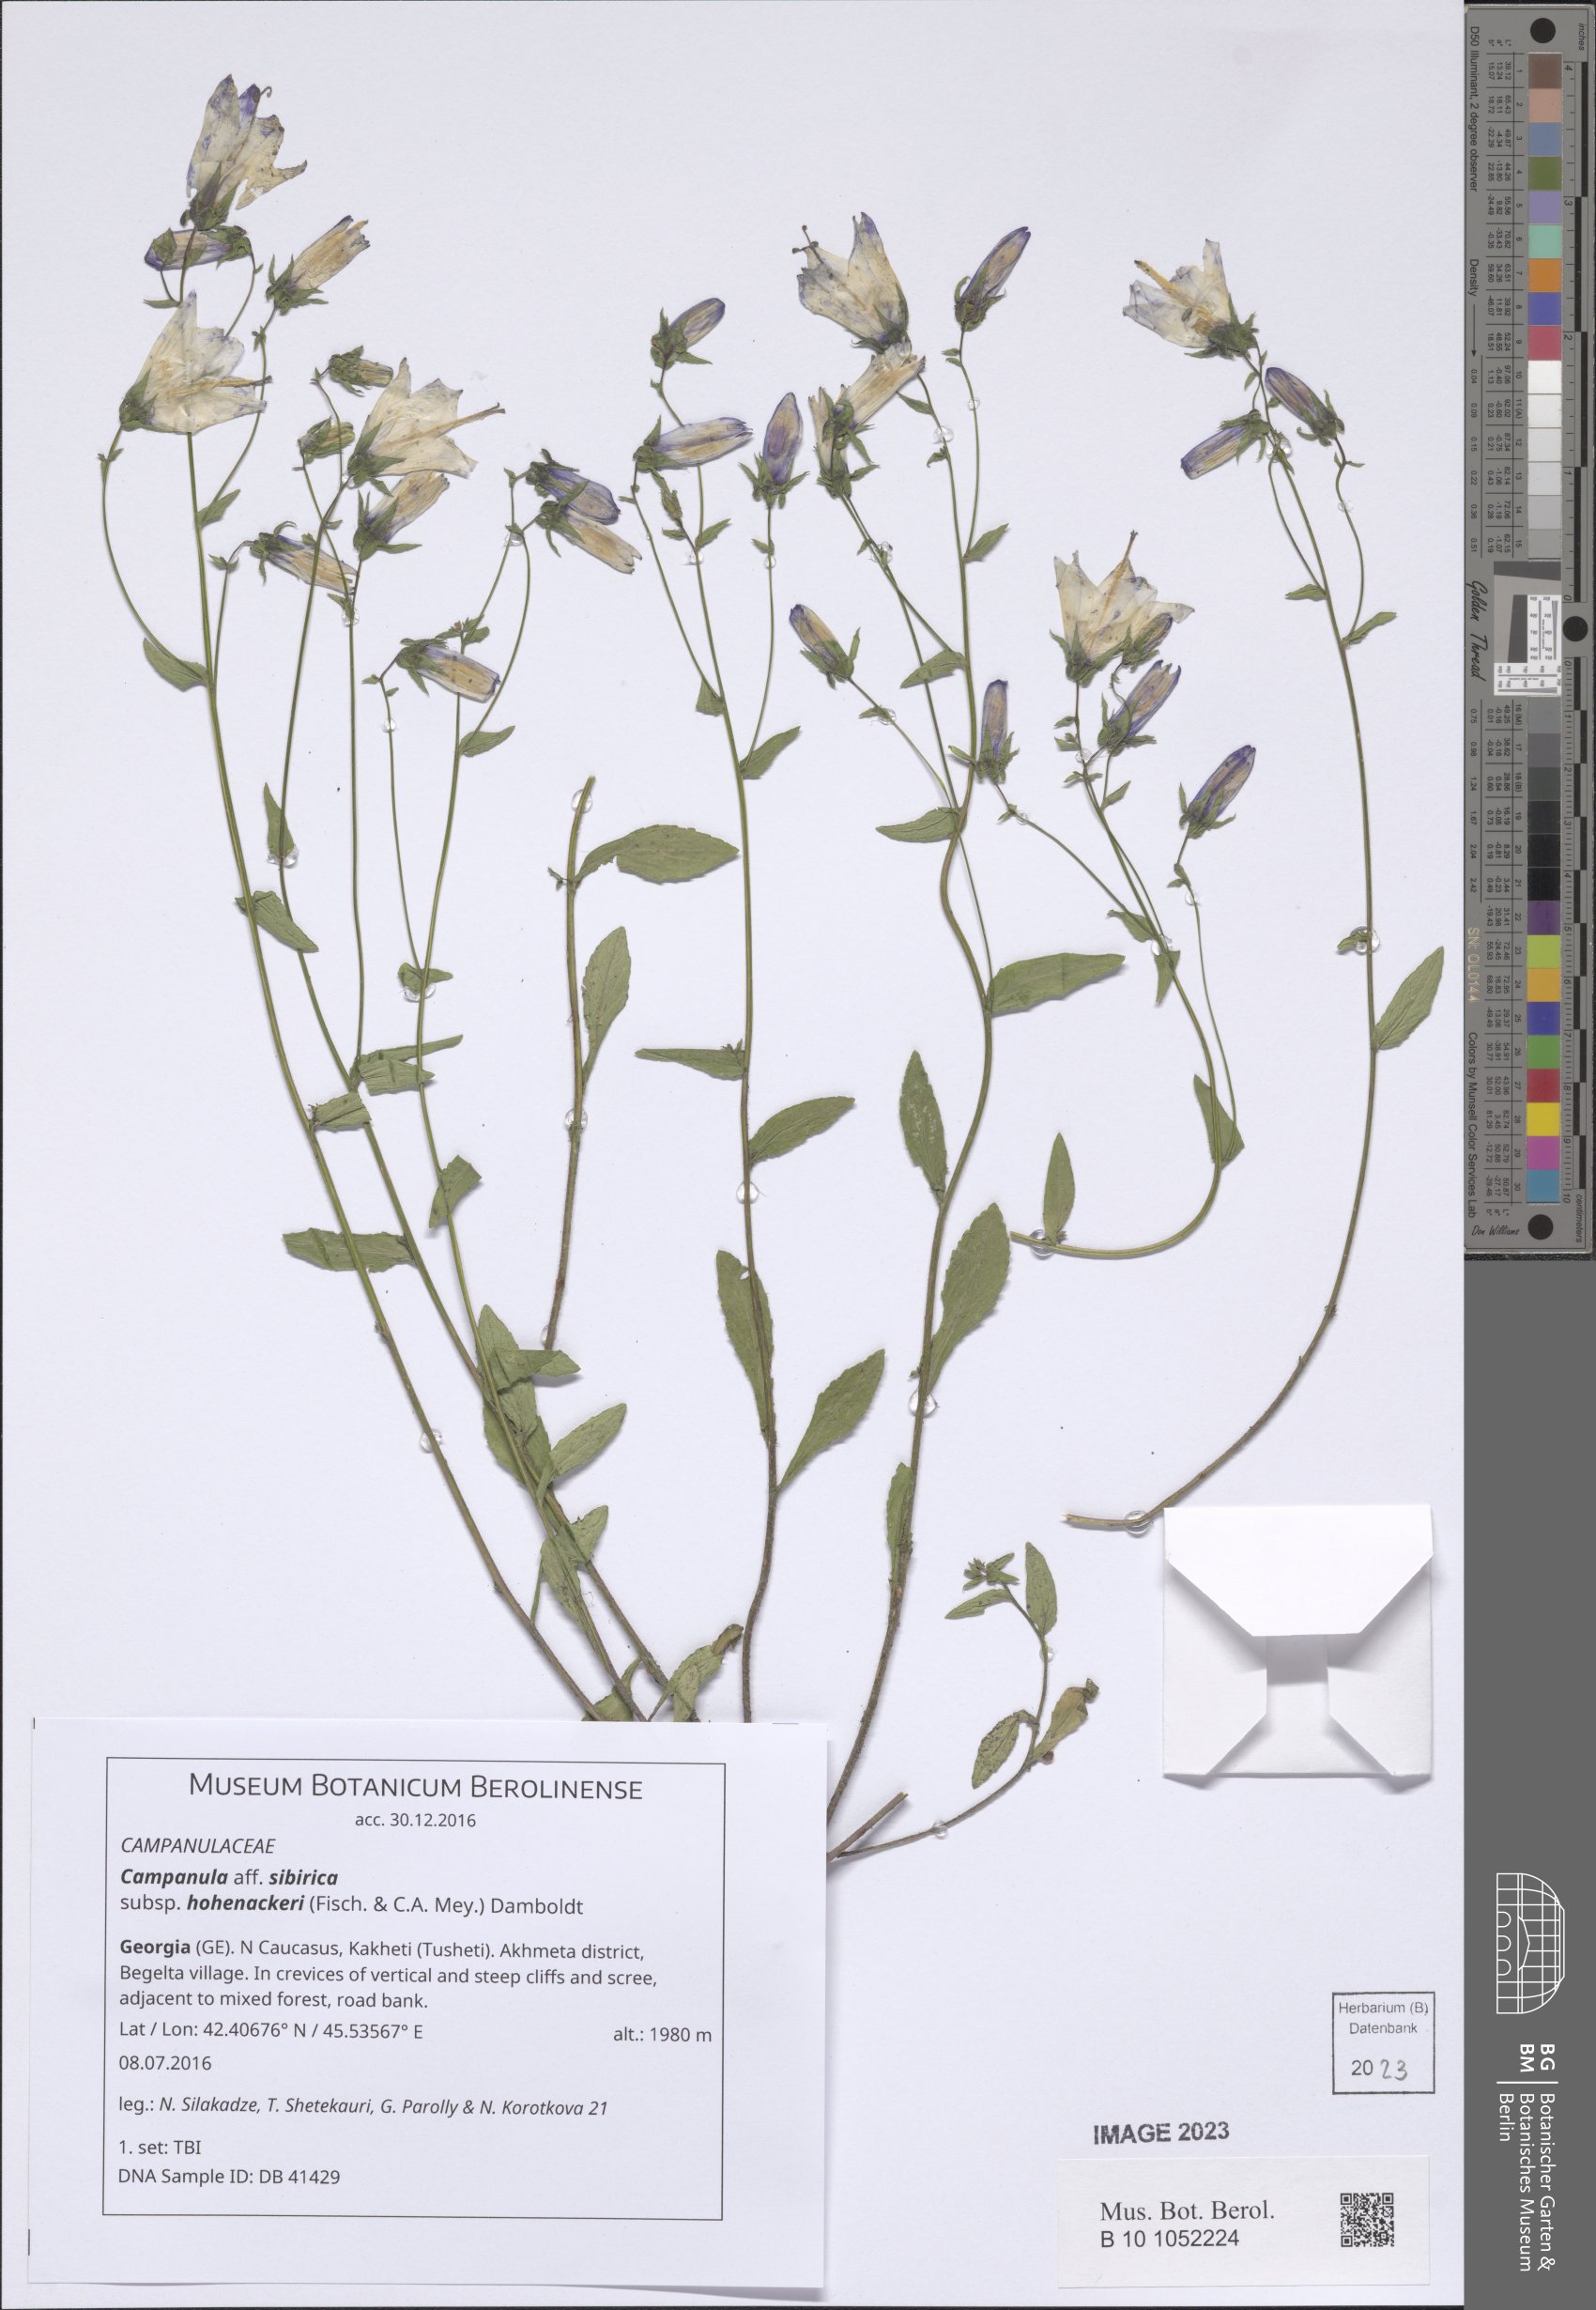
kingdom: Plantae
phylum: Tracheophyta
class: Magnoliopsida
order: Asterales
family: Campanulaceae
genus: Campanula
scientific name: Campanula sibirica
